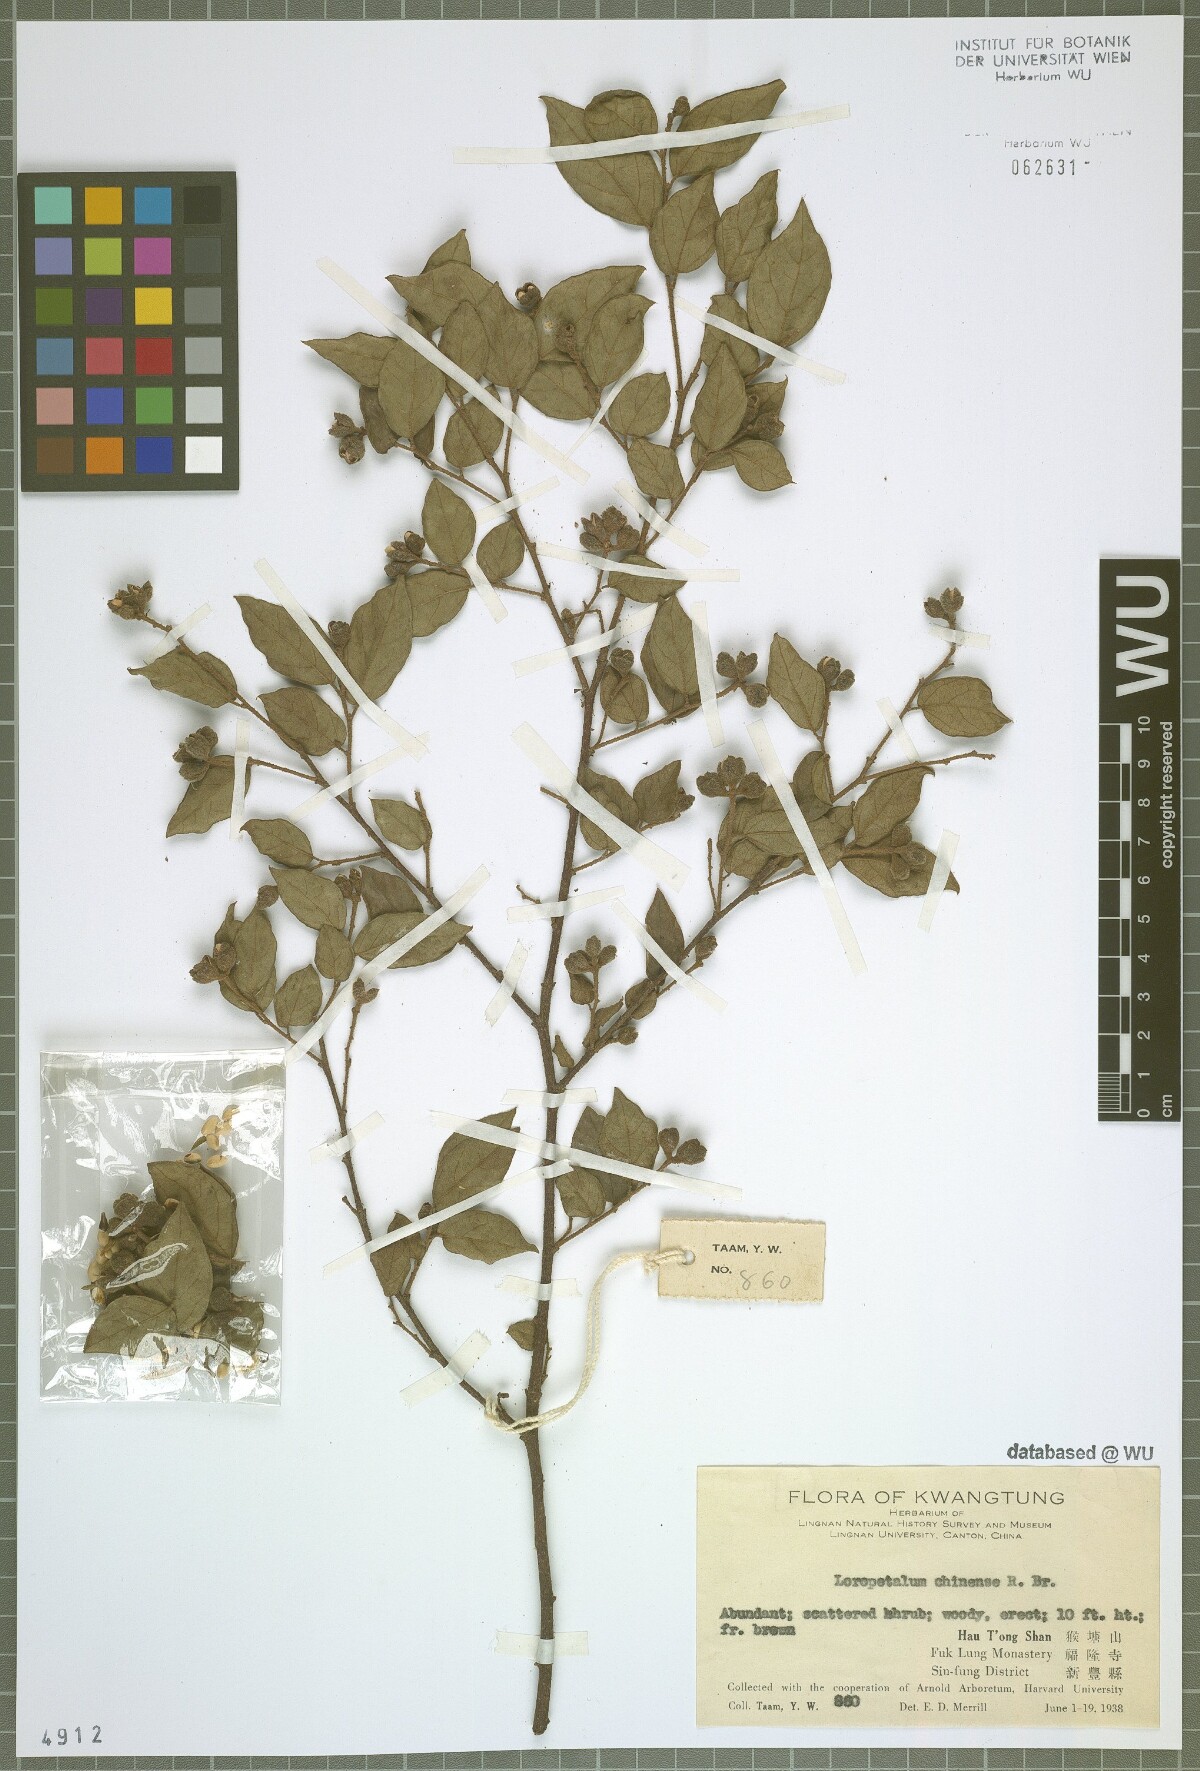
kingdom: Plantae
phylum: Tracheophyta
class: Magnoliopsida
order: Saxifragales
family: Hamamelidaceae
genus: Loropetalum
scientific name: Loropetalum chinense
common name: Chinese fringe flower
